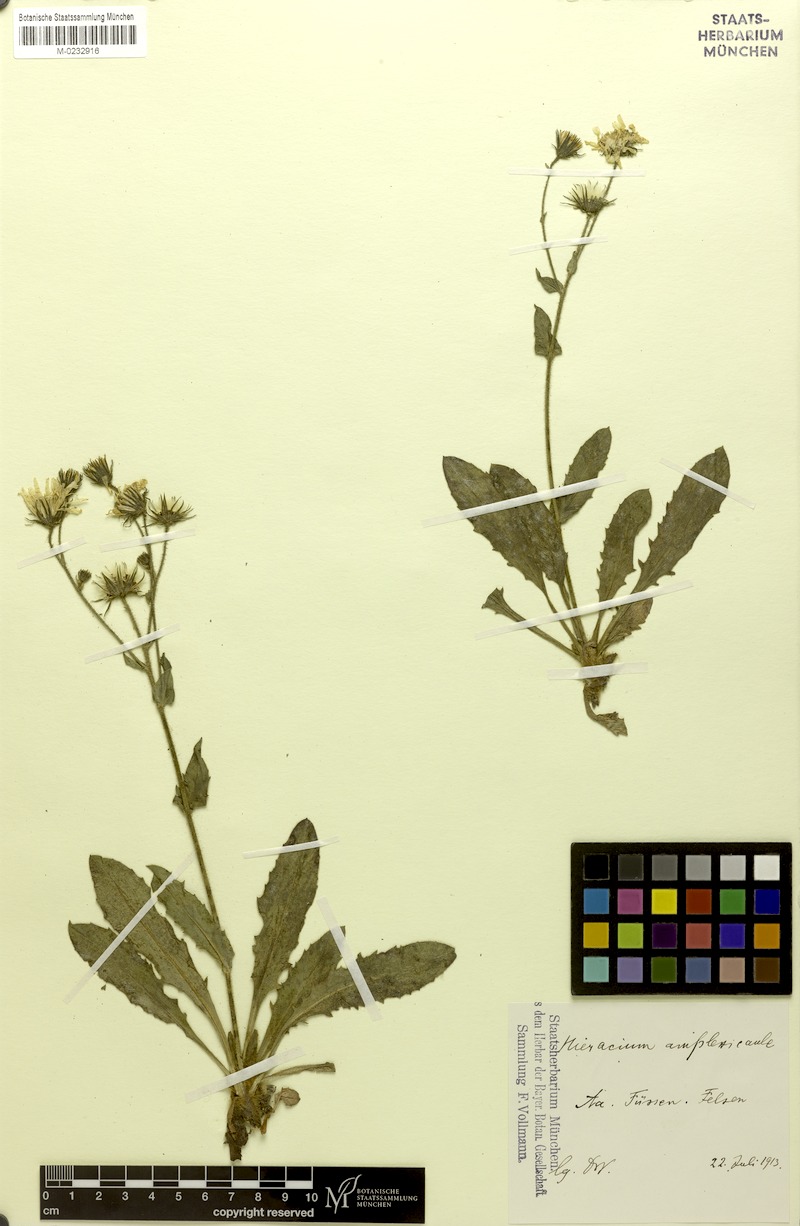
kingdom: Plantae
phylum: Tracheophyta
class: Magnoliopsida
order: Asterales
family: Asteraceae
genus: Hieracium
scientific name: Hieracium amplexicaule
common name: Sticky hawkweed
